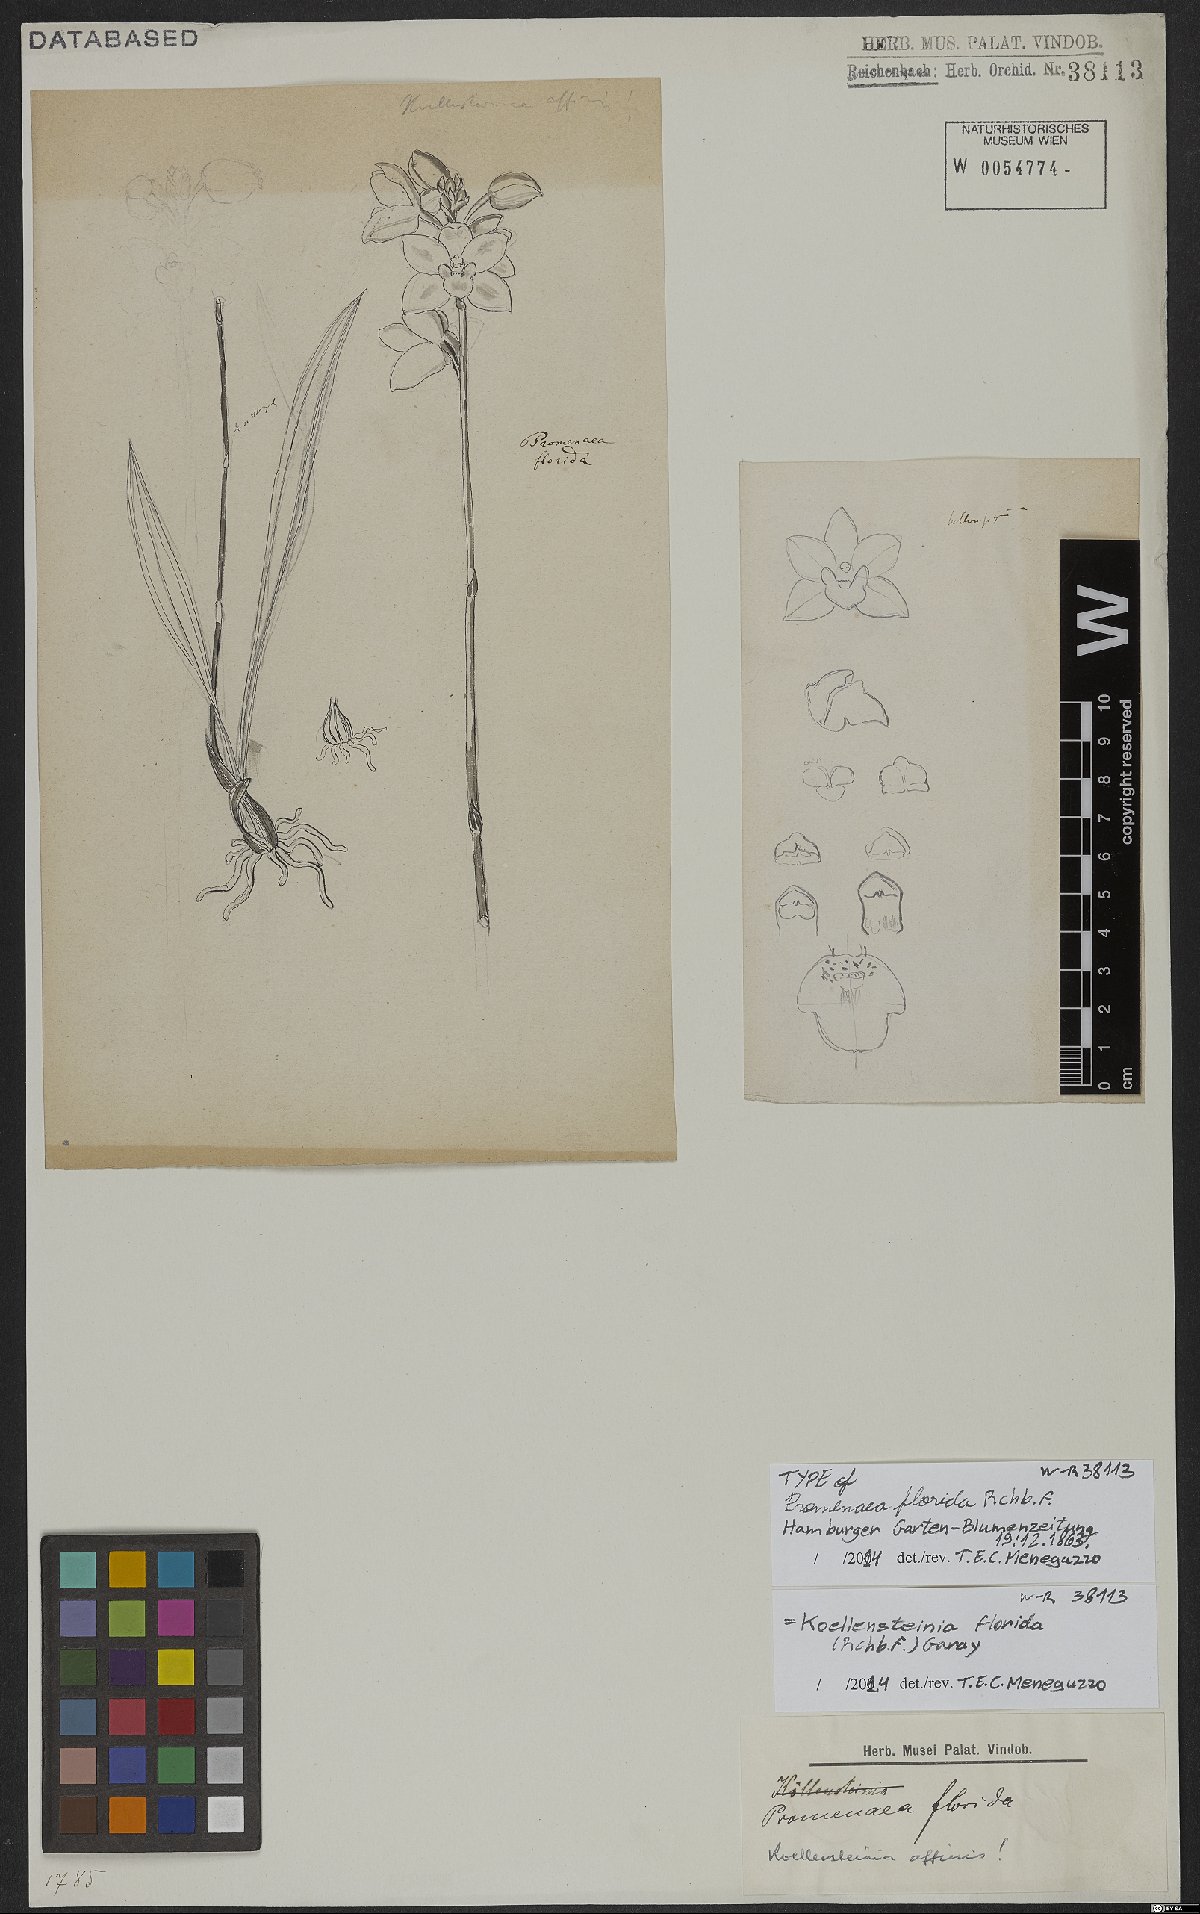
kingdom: Plantae
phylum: Tracheophyta
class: Liliopsida
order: Asparagales
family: Orchidaceae
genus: Koellensteinia
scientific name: Koellensteinia florida
